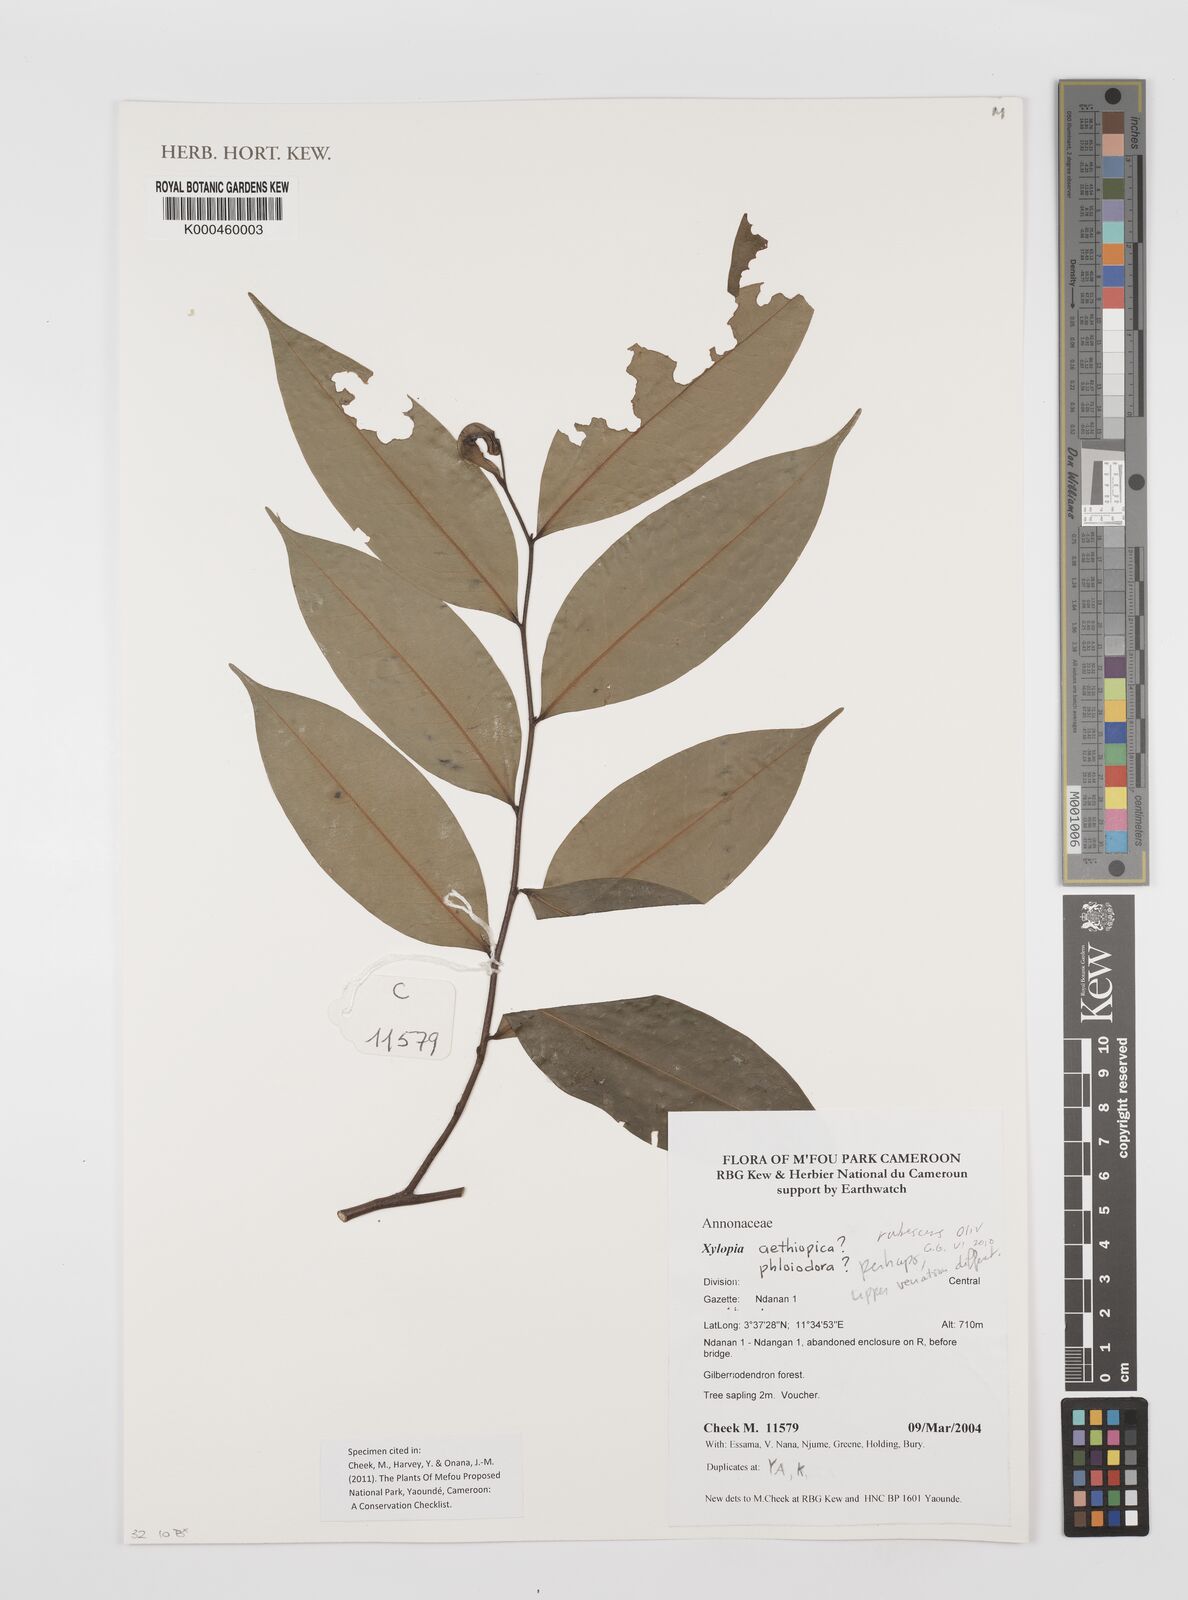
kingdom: Plantae
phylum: Tracheophyta
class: Magnoliopsida
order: Magnoliales
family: Annonaceae
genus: Xylopia
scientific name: Xylopia rubescens
